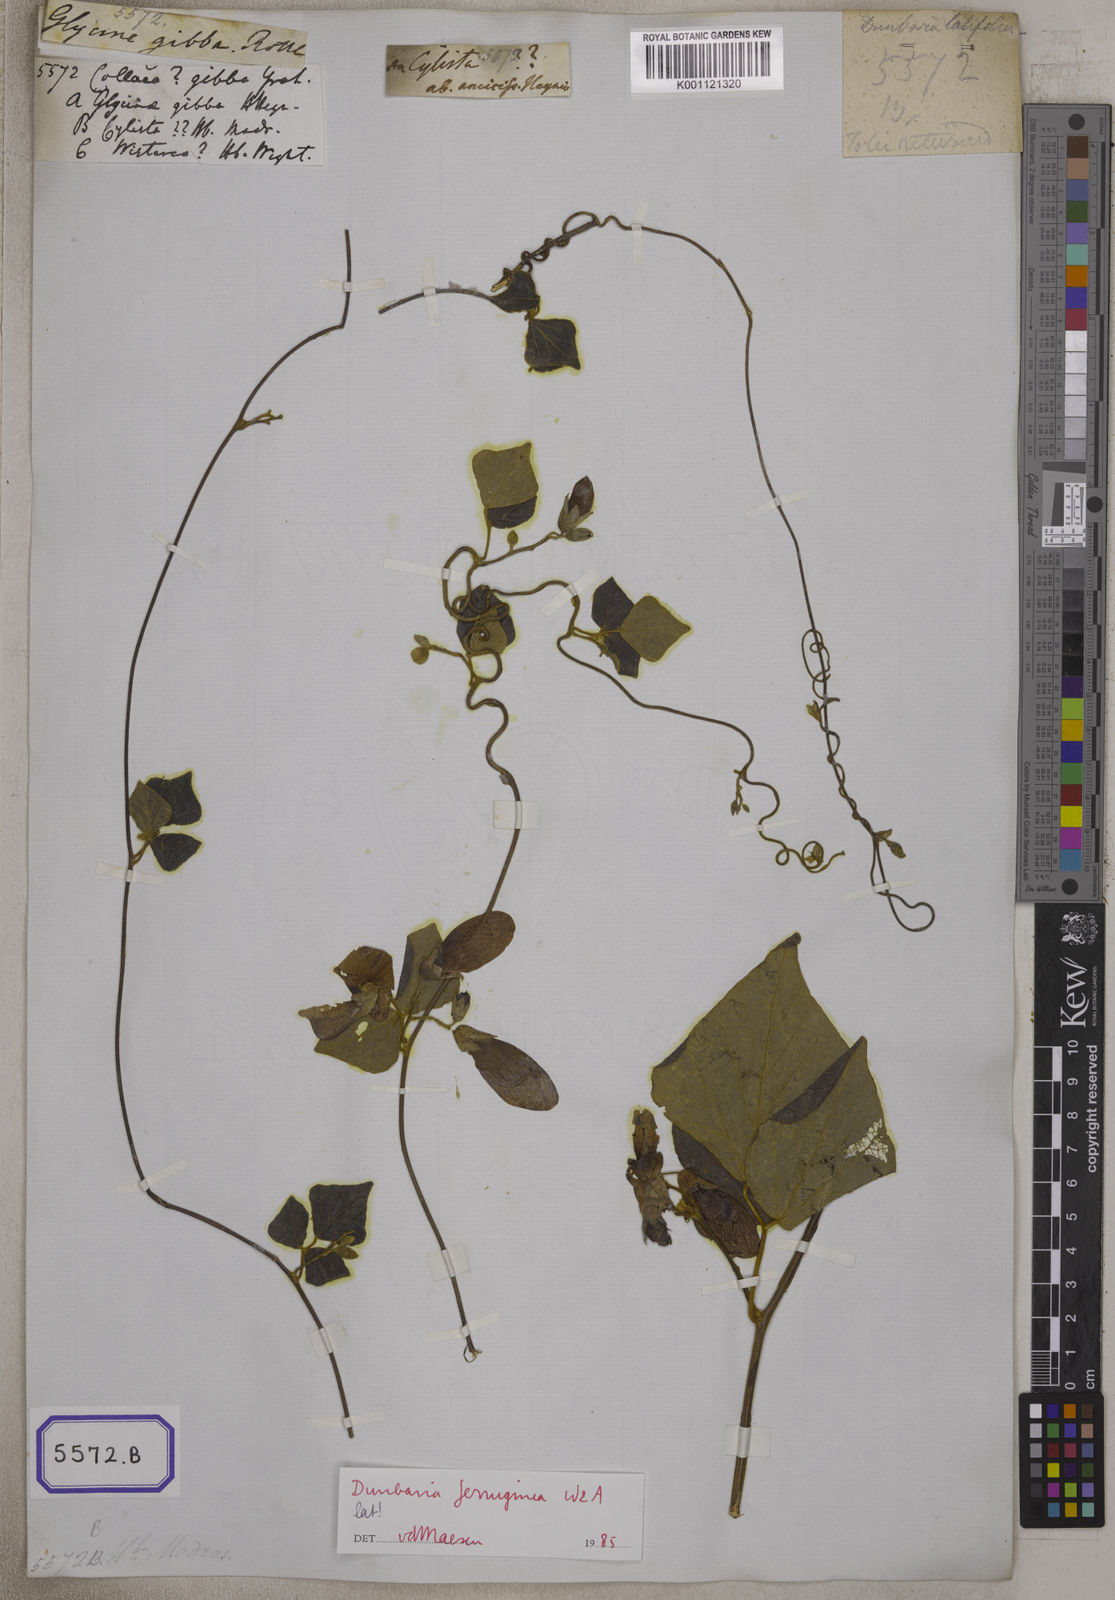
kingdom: Plantae
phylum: Tracheophyta
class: Magnoliopsida
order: Fabales
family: Fabaceae
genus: Cajanus
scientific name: Cajanus heynei
